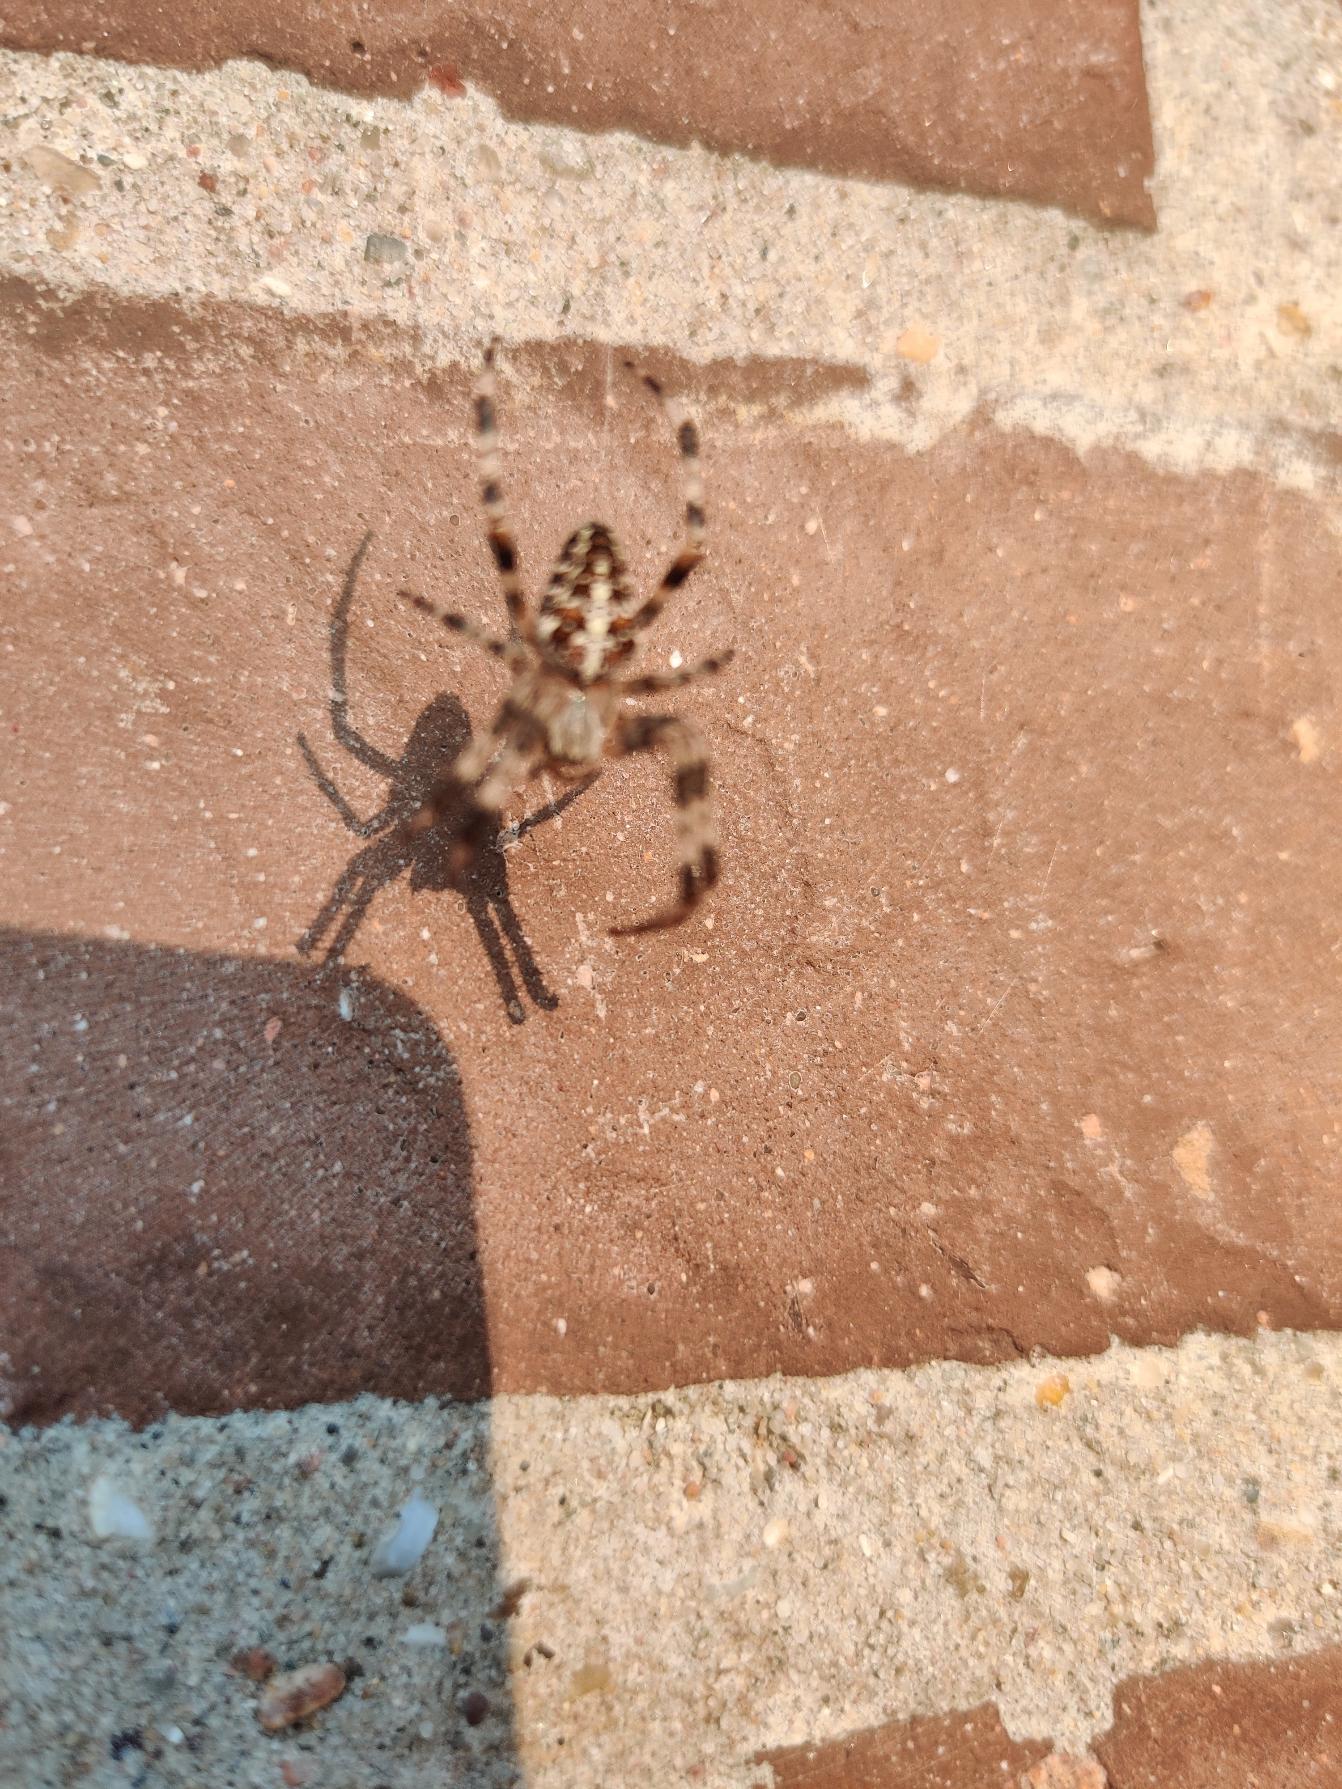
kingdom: Animalia
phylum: Arthropoda
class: Arachnida
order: Araneae
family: Araneidae
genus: Araneus
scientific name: Araneus diadematus
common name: Korsedderkop
